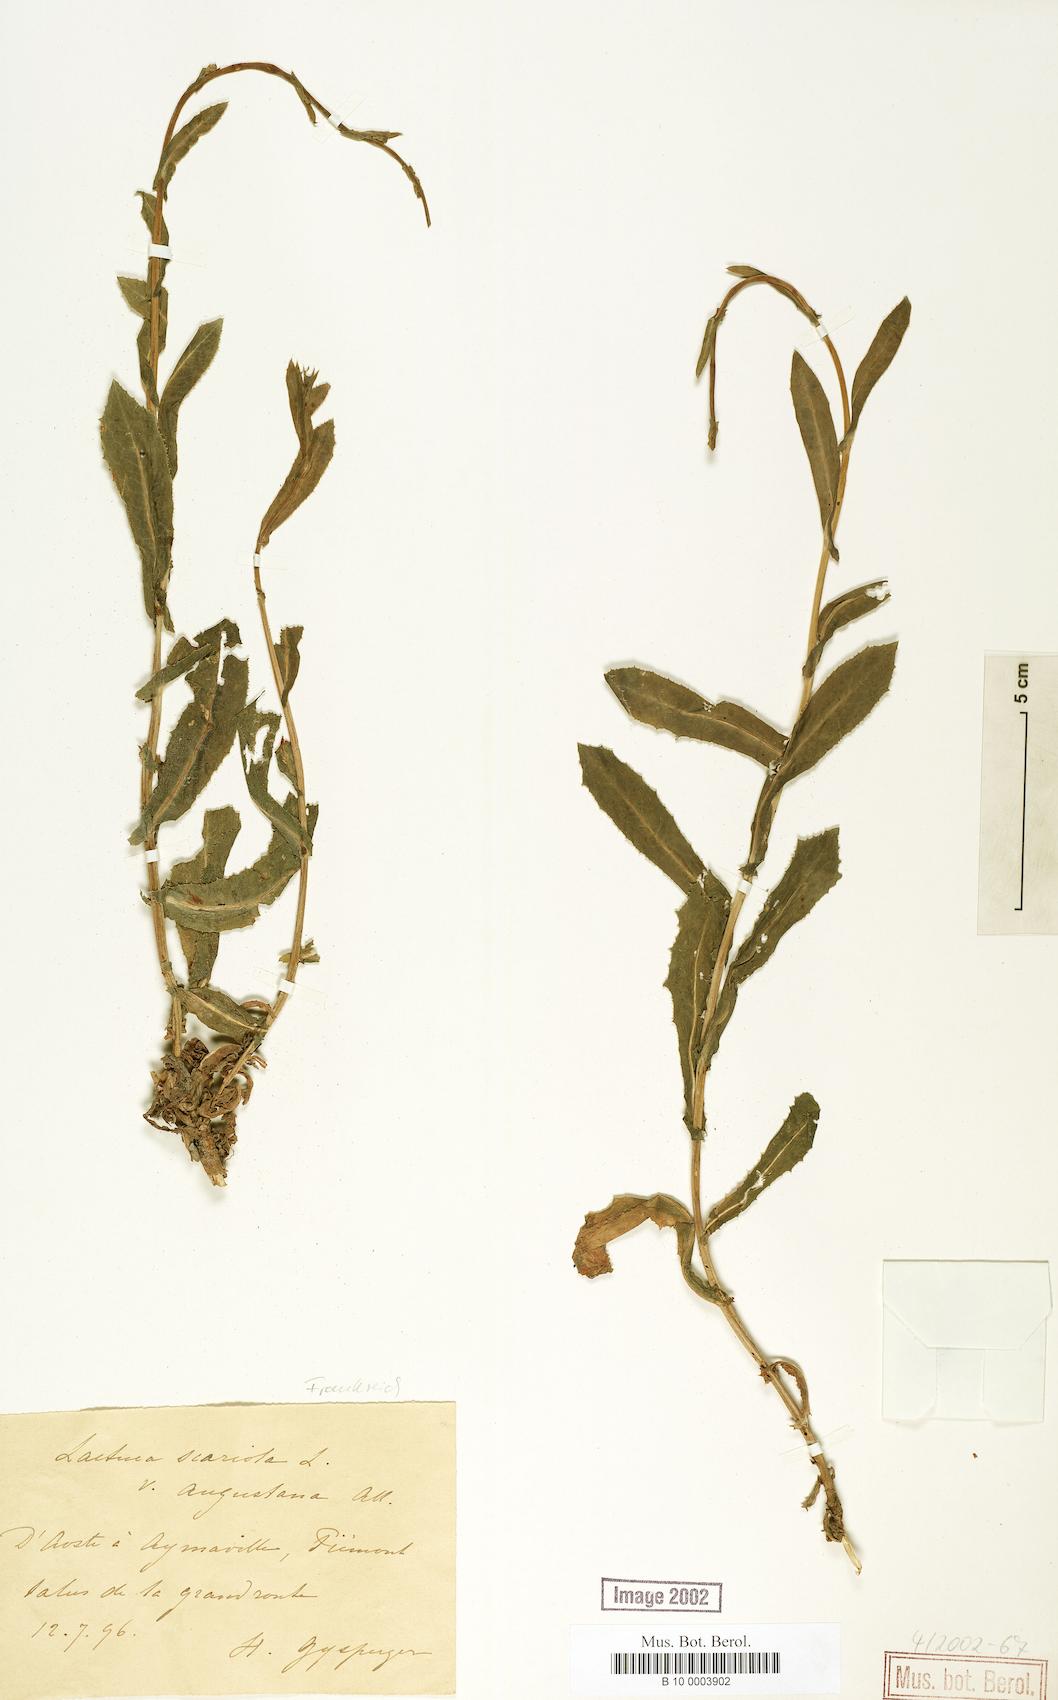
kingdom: Plantae
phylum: Tracheophyta
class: Magnoliopsida
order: Asterales
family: Asteraceae
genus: Lactuca
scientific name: Lactuca serriola
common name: Prickly lettuce
